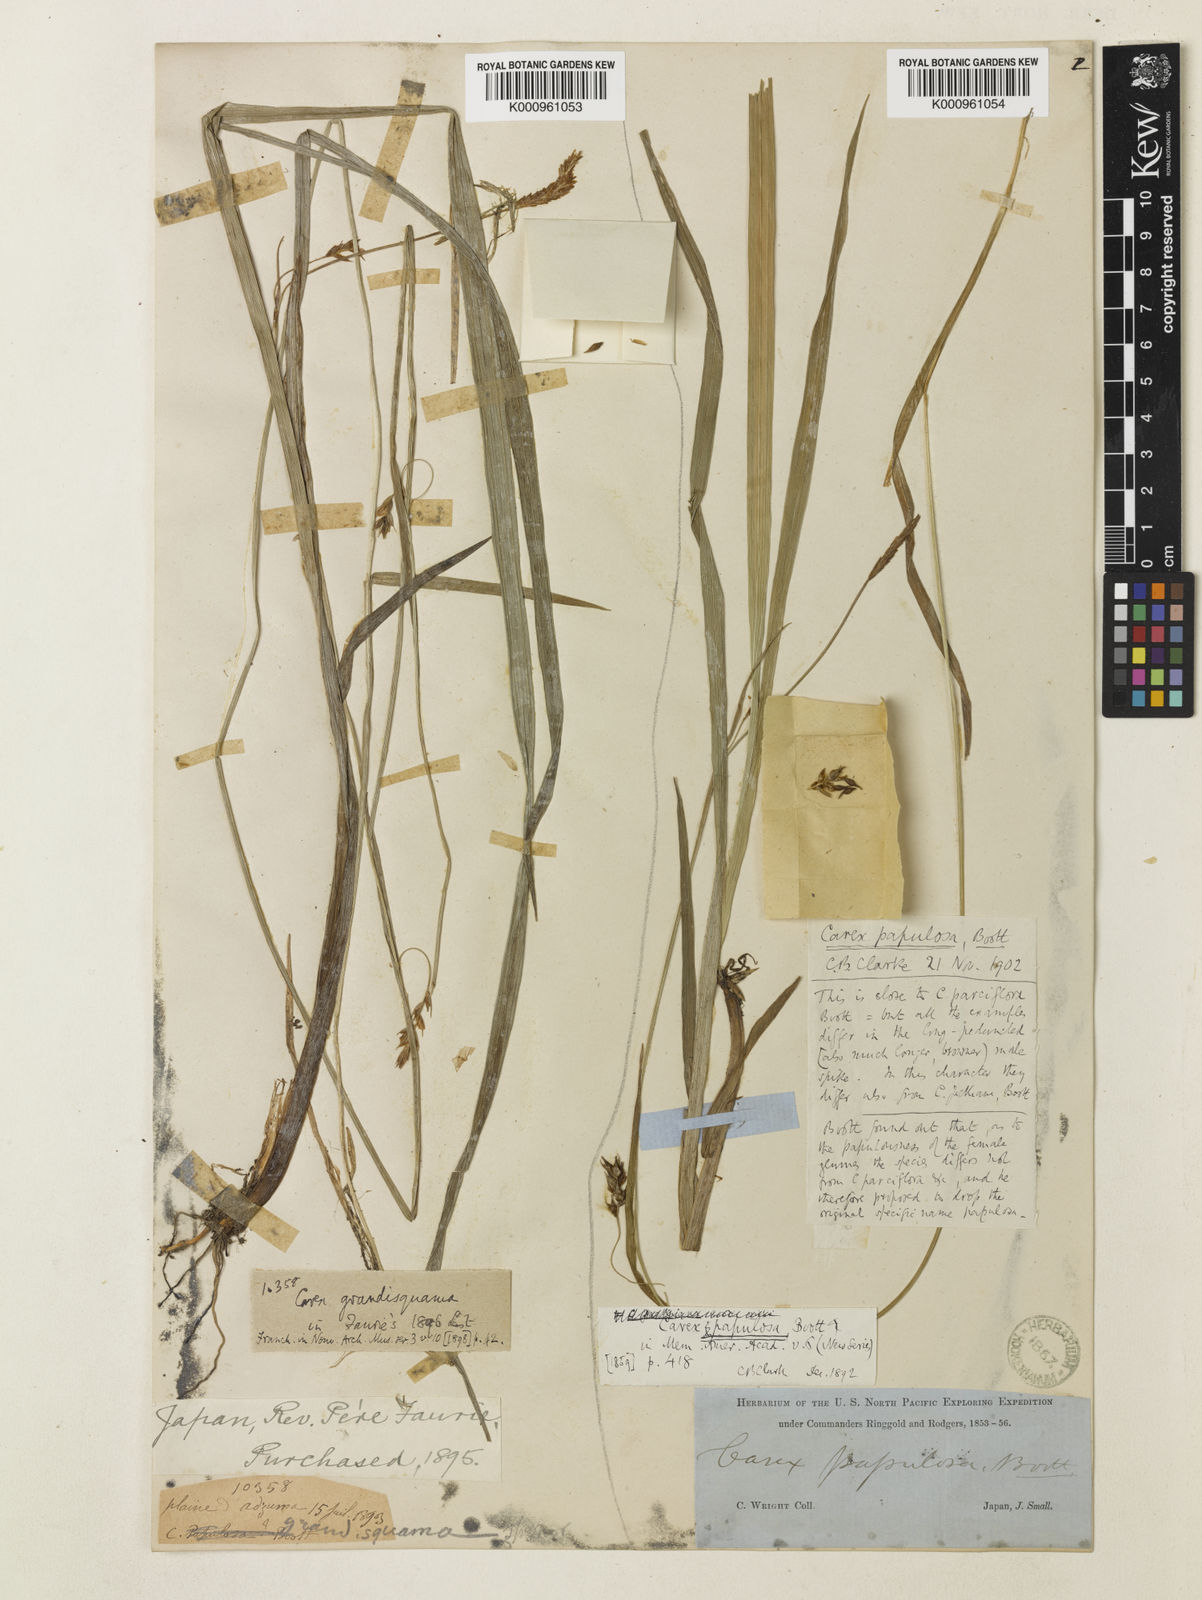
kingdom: Plantae
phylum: Tracheophyta
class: Liliopsida
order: Poales
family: Cyperaceae
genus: Carex
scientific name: Carex papulosa
